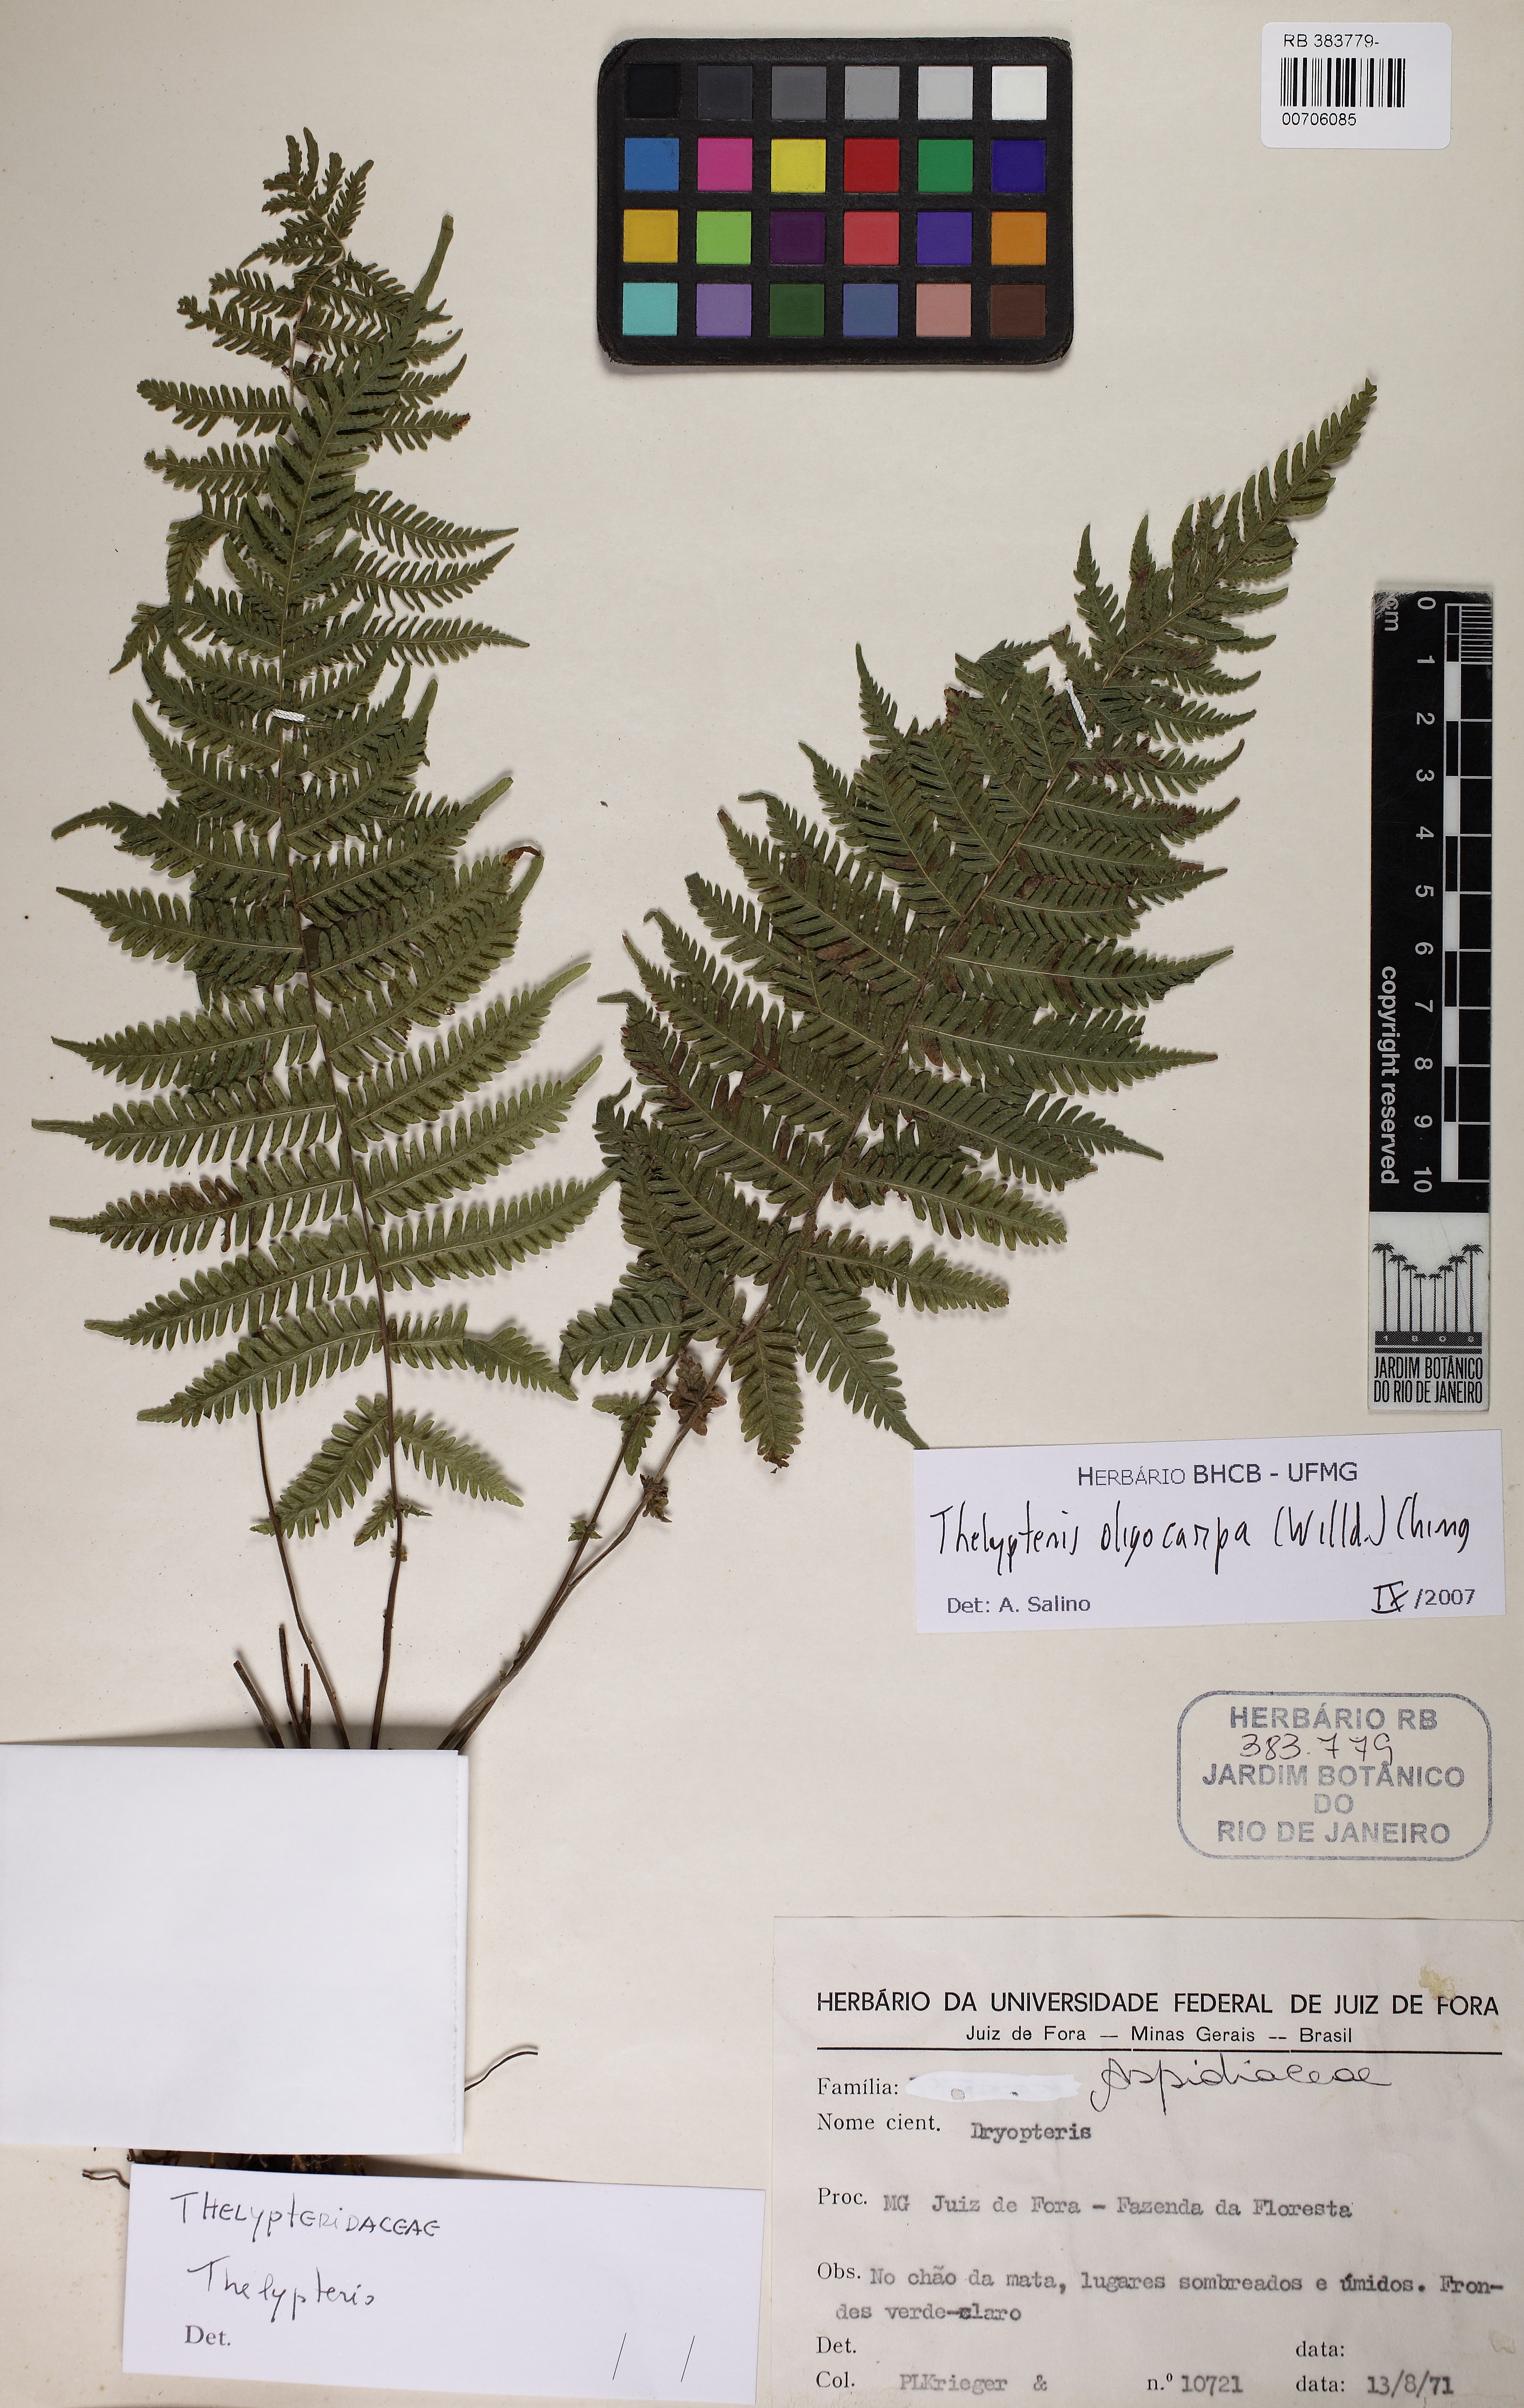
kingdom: Plantae
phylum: Tracheophyta
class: Polypodiopsida
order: Polypodiales
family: Thelypteridaceae
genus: Amauropelta
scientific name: Amauropelta oligocarpa
